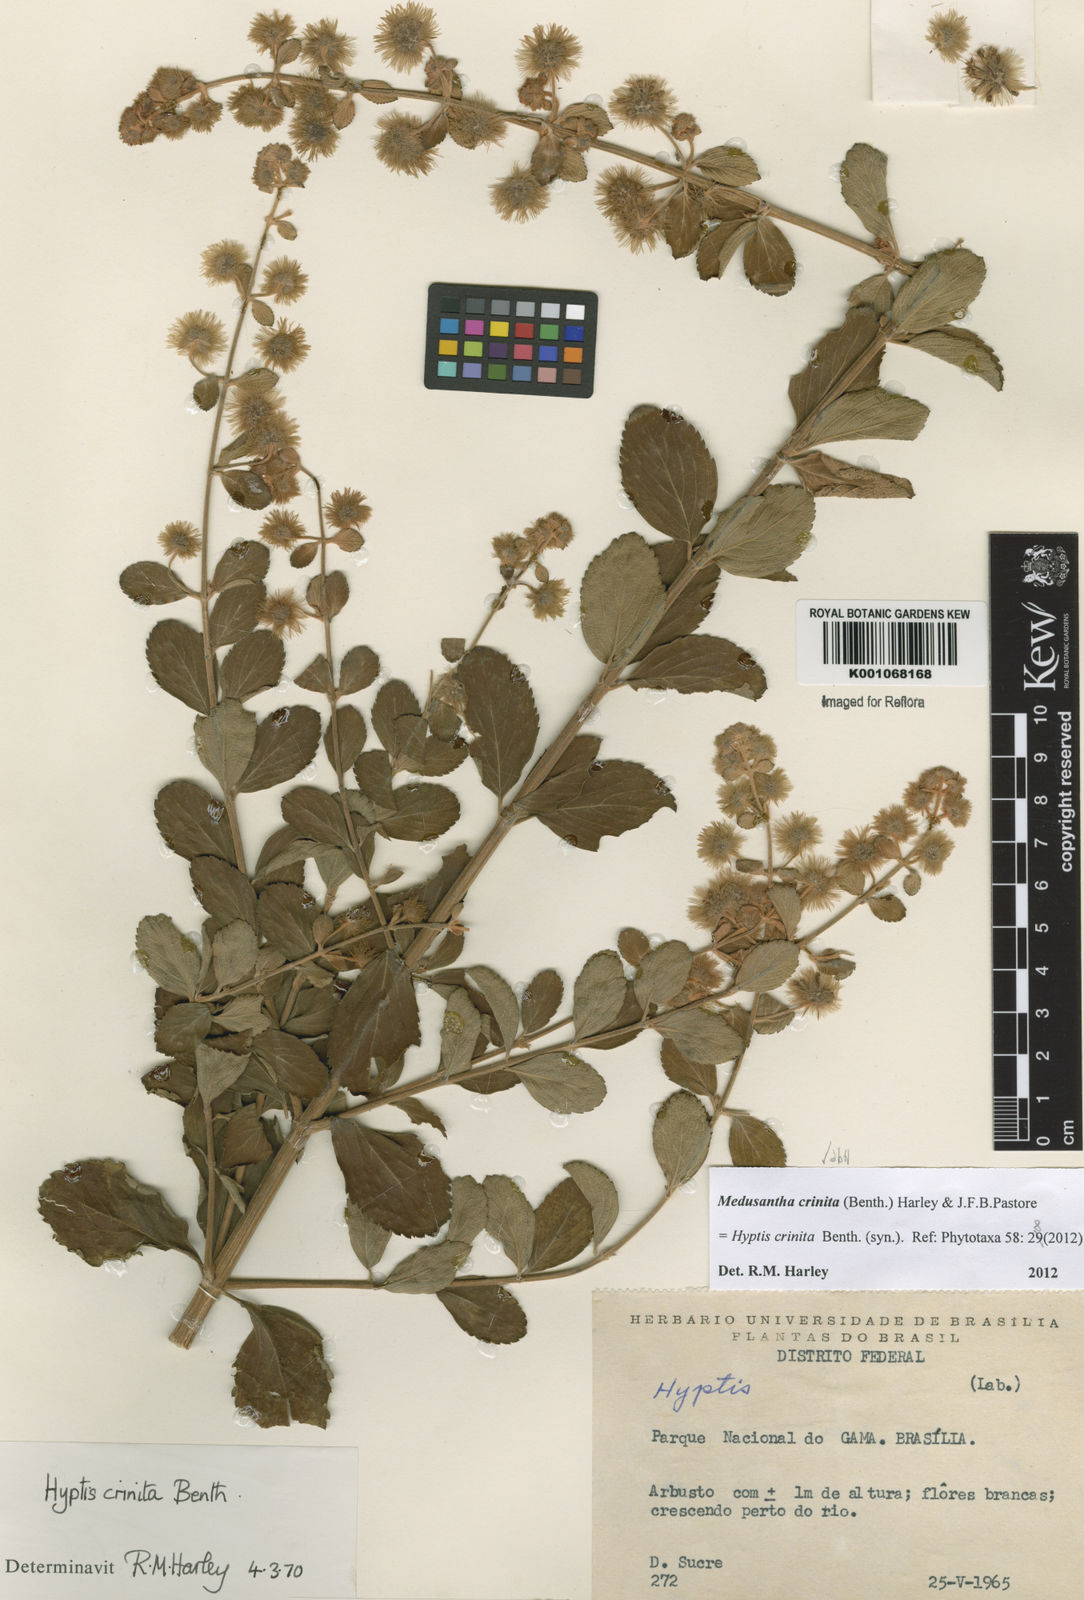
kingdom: Plantae
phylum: Tracheophyta
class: Magnoliopsida
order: Lamiales
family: Lamiaceae
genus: Medusantha
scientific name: Medusantha crinita
